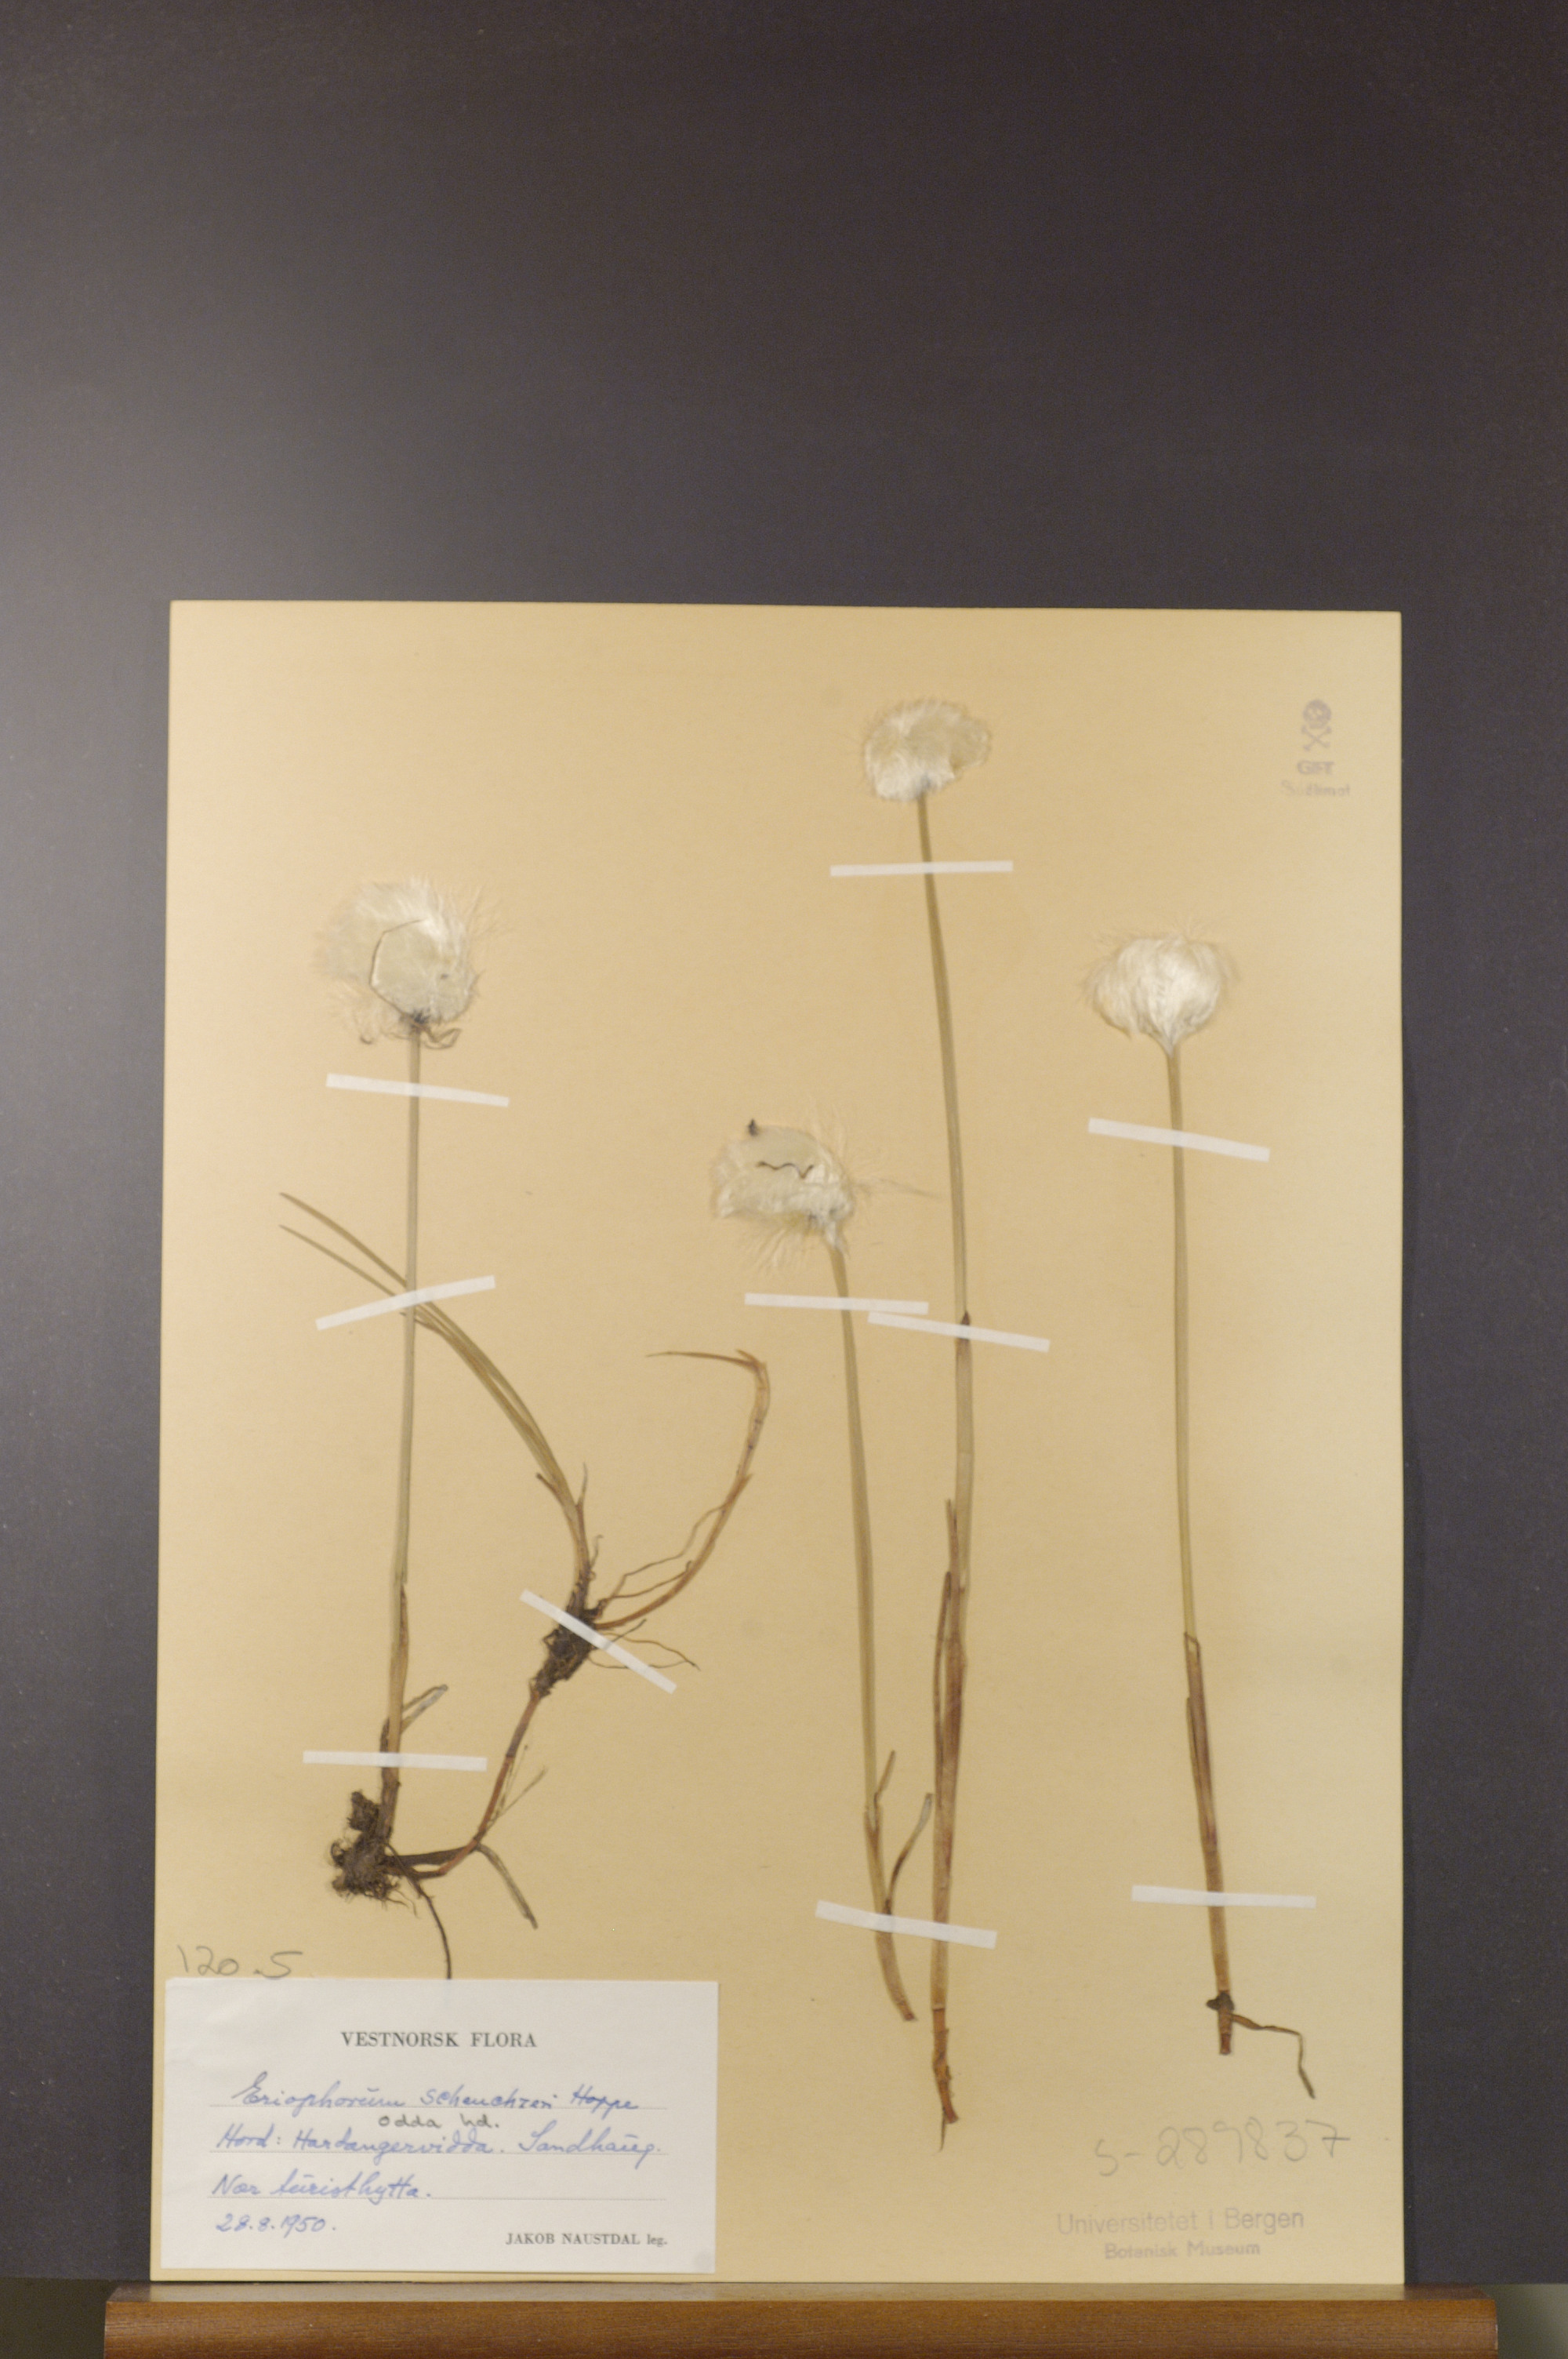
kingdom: Plantae
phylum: Tracheophyta
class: Liliopsida
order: Poales
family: Cyperaceae
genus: Eriophorum
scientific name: Eriophorum scheuchzeri
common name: Scheuchzer's cottongrass
